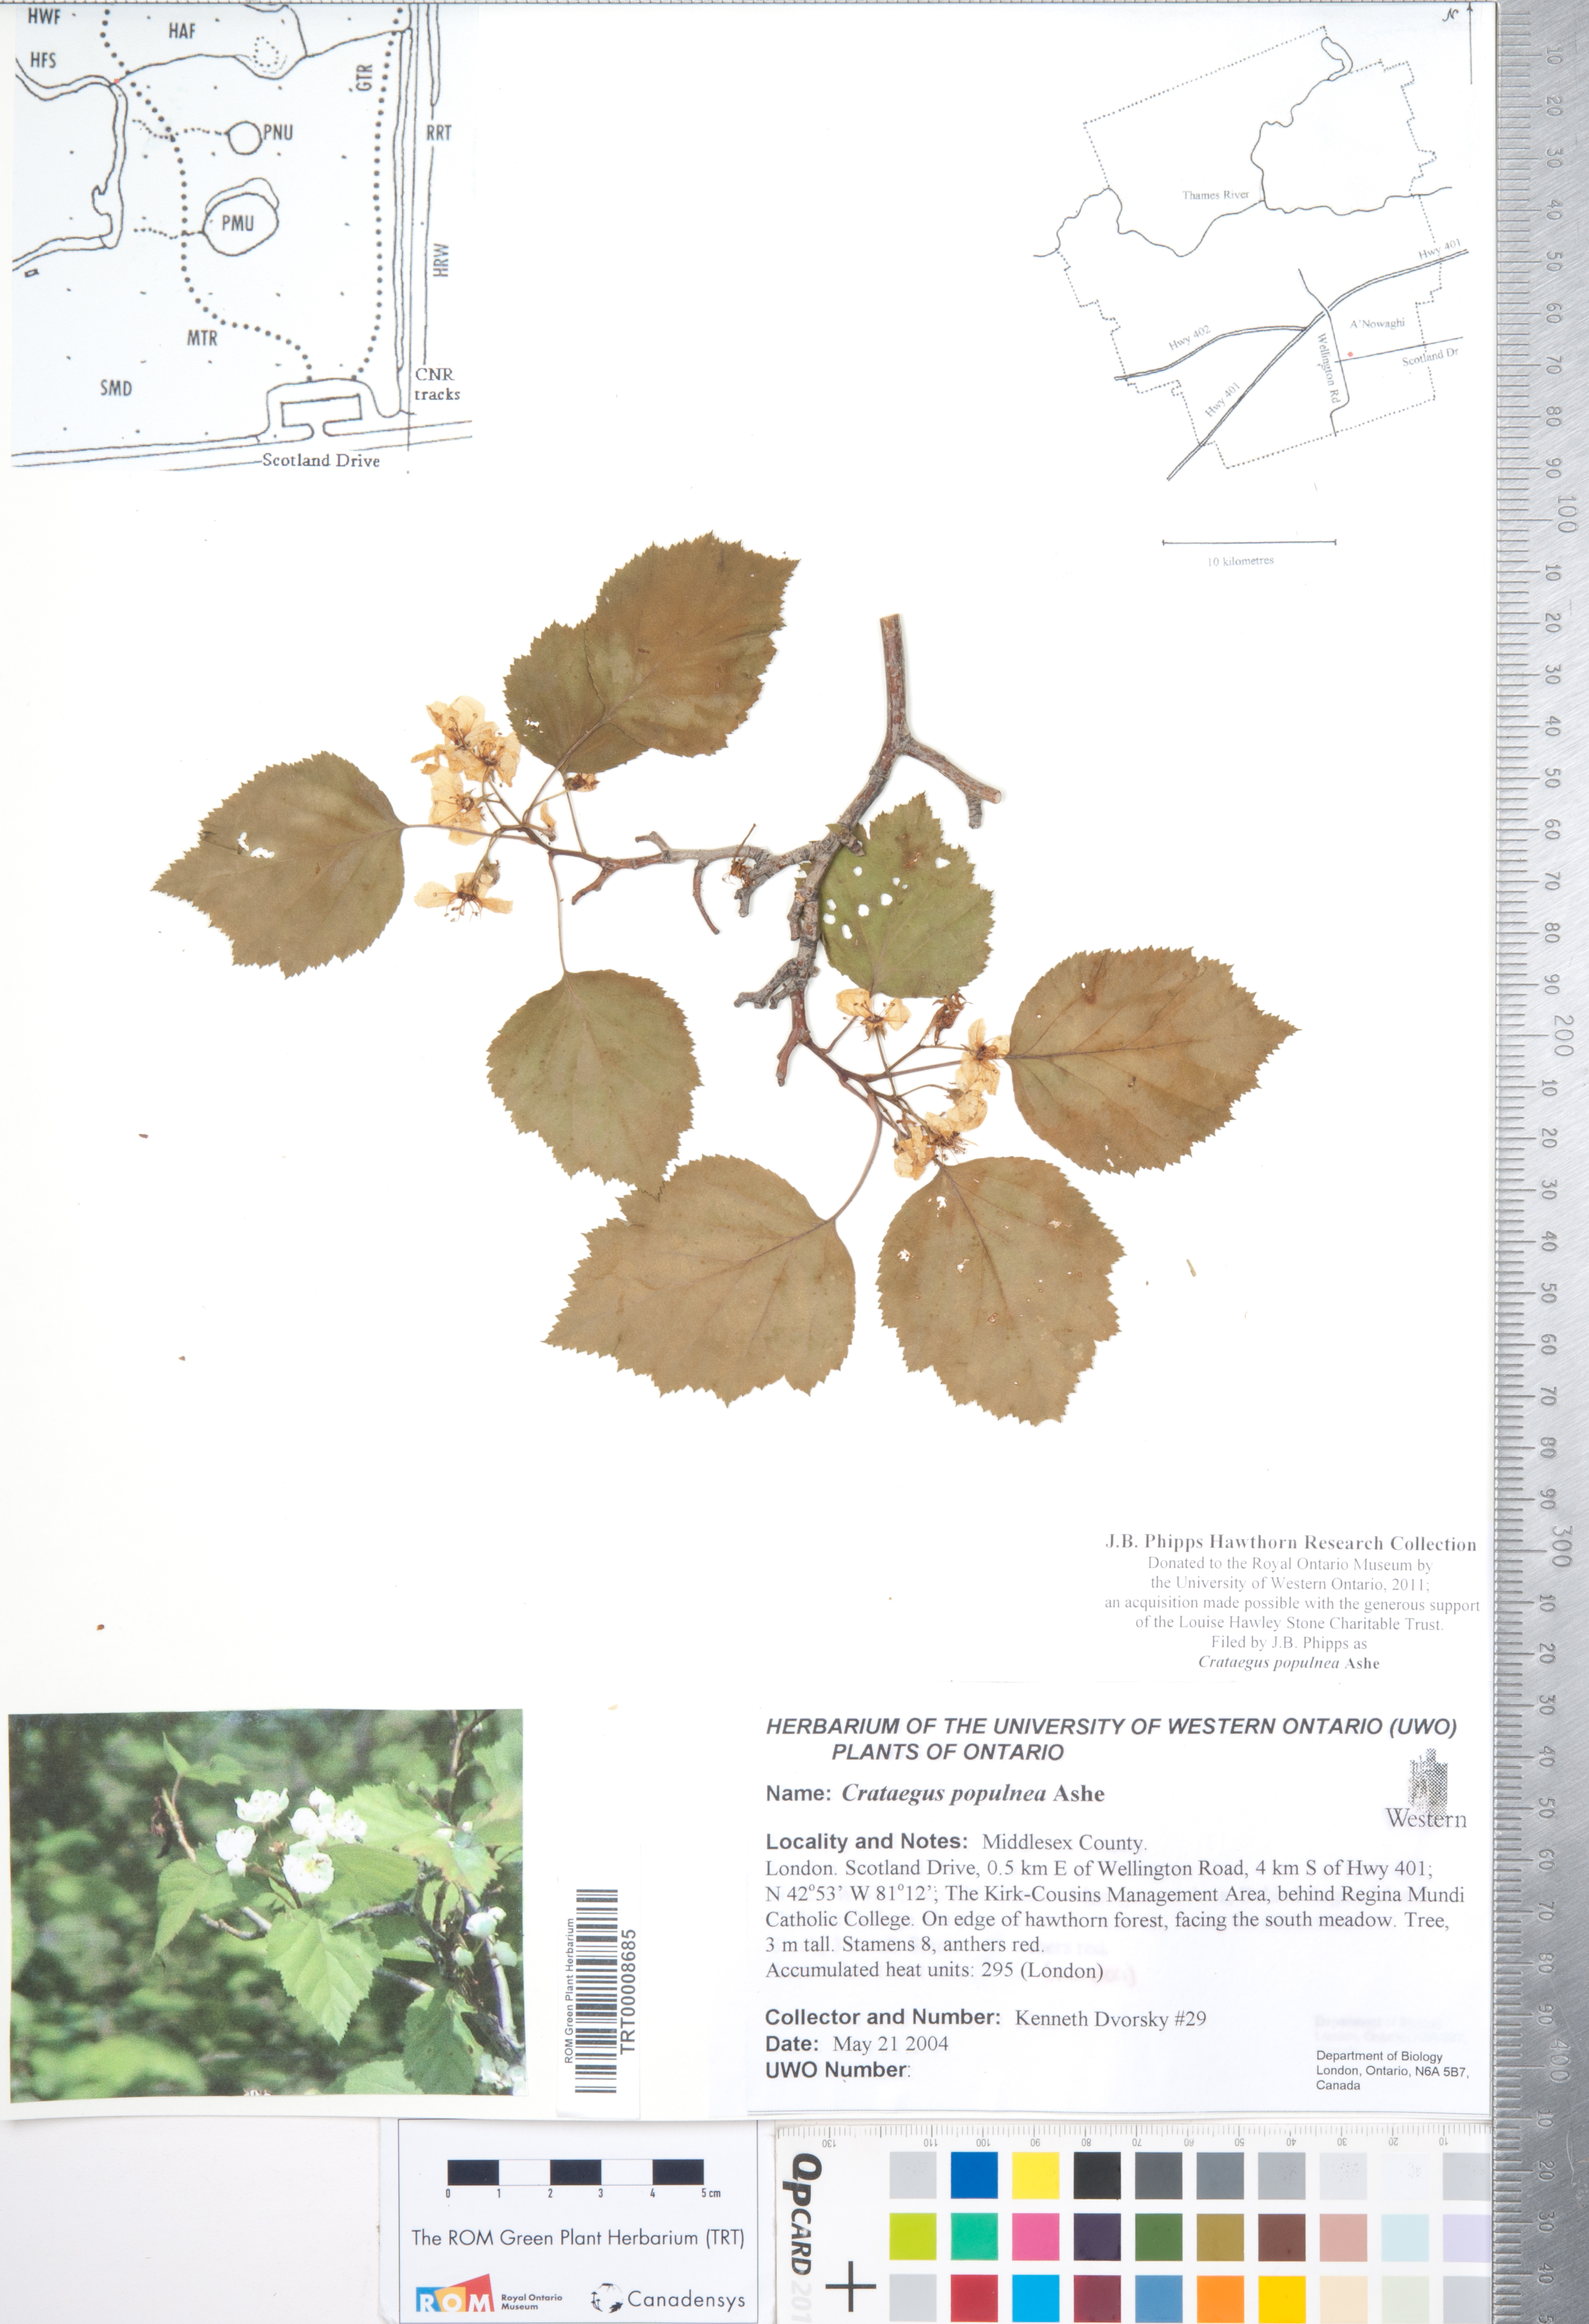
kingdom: Plantae
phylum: Tracheophyta
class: Magnoliopsida
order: Rosales
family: Rosaceae
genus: Crataegus
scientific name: Crataegus populnea
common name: Adorned hawthorn
